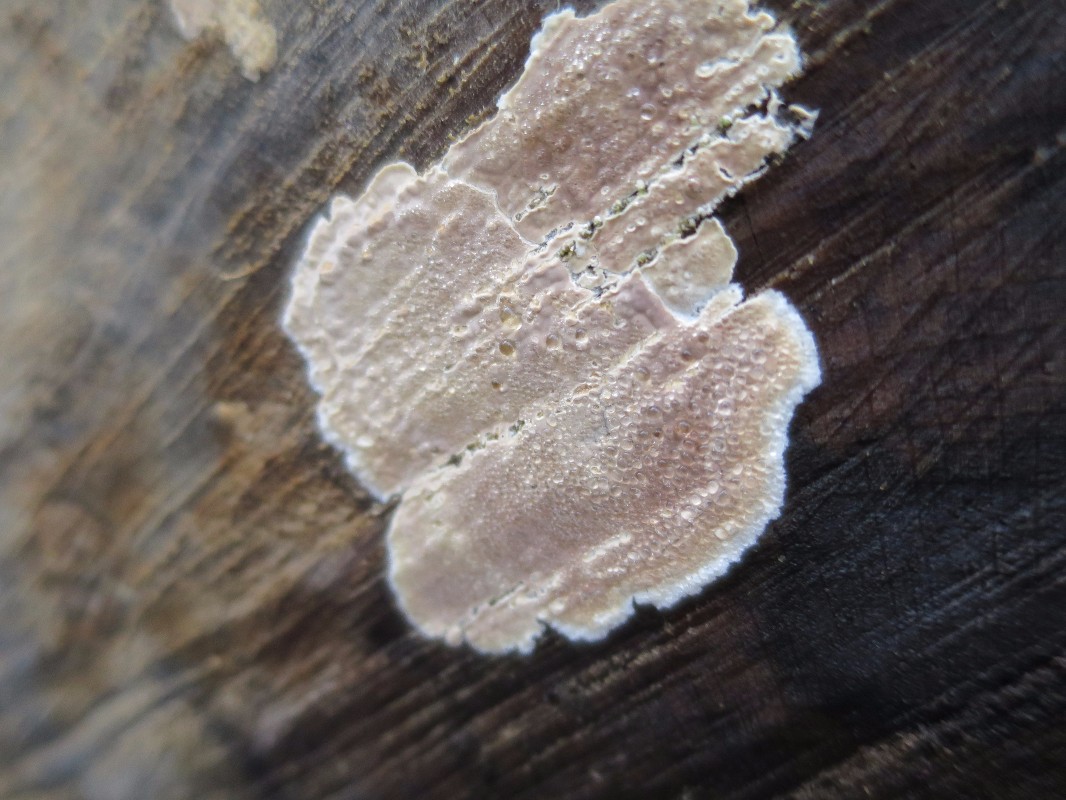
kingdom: Fungi
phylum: Basidiomycota
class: Agaricomycetes
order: Agaricales
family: Physalacriaceae
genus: Cylindrobasidium
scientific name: Cylindrobasidium evolvens
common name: sprækkehinde
